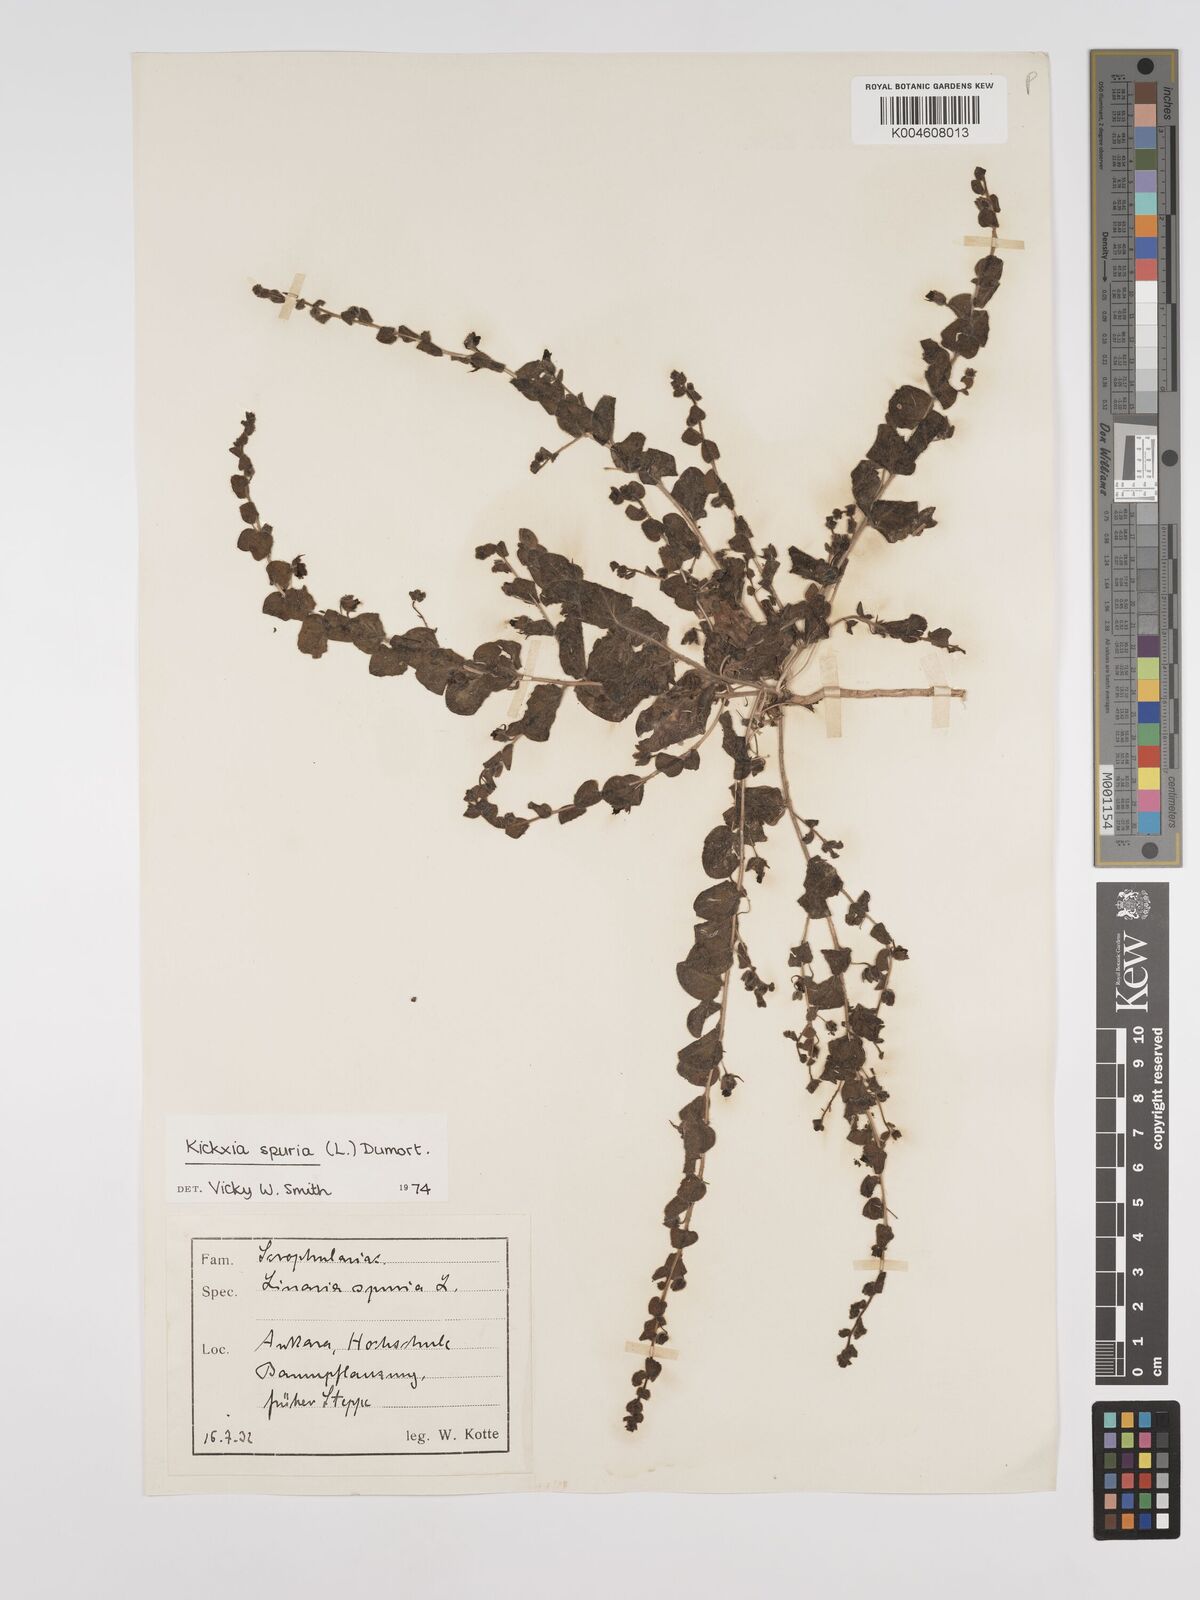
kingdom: Plantae
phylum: Tracheophyta
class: Magnoliopsida
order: Lamiales
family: Plantaginaceae
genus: Kickxia
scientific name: Kickxia spuria
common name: Round-leaved fluellen
